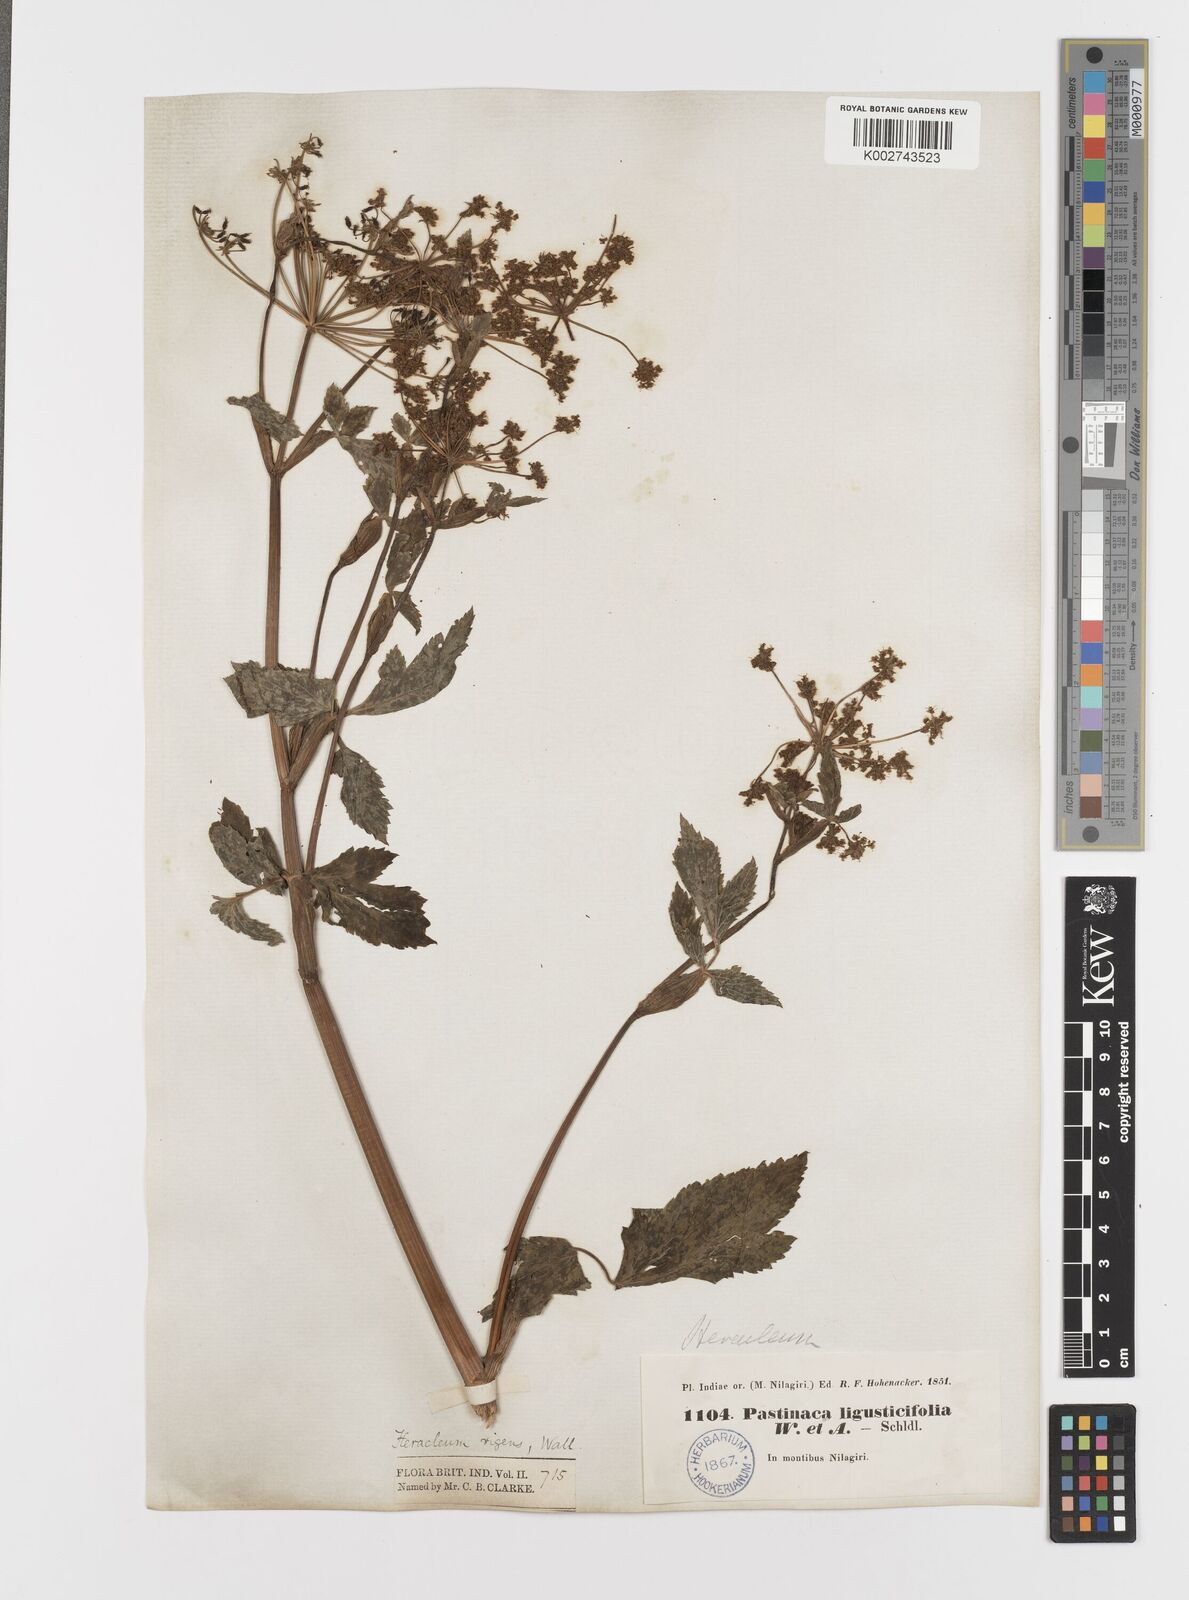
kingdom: Plantae
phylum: Tracheophyta
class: Magnoliopsida
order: Apiales
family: Apiaceae
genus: Tetrataenium
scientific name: Tetrataenium rigens
